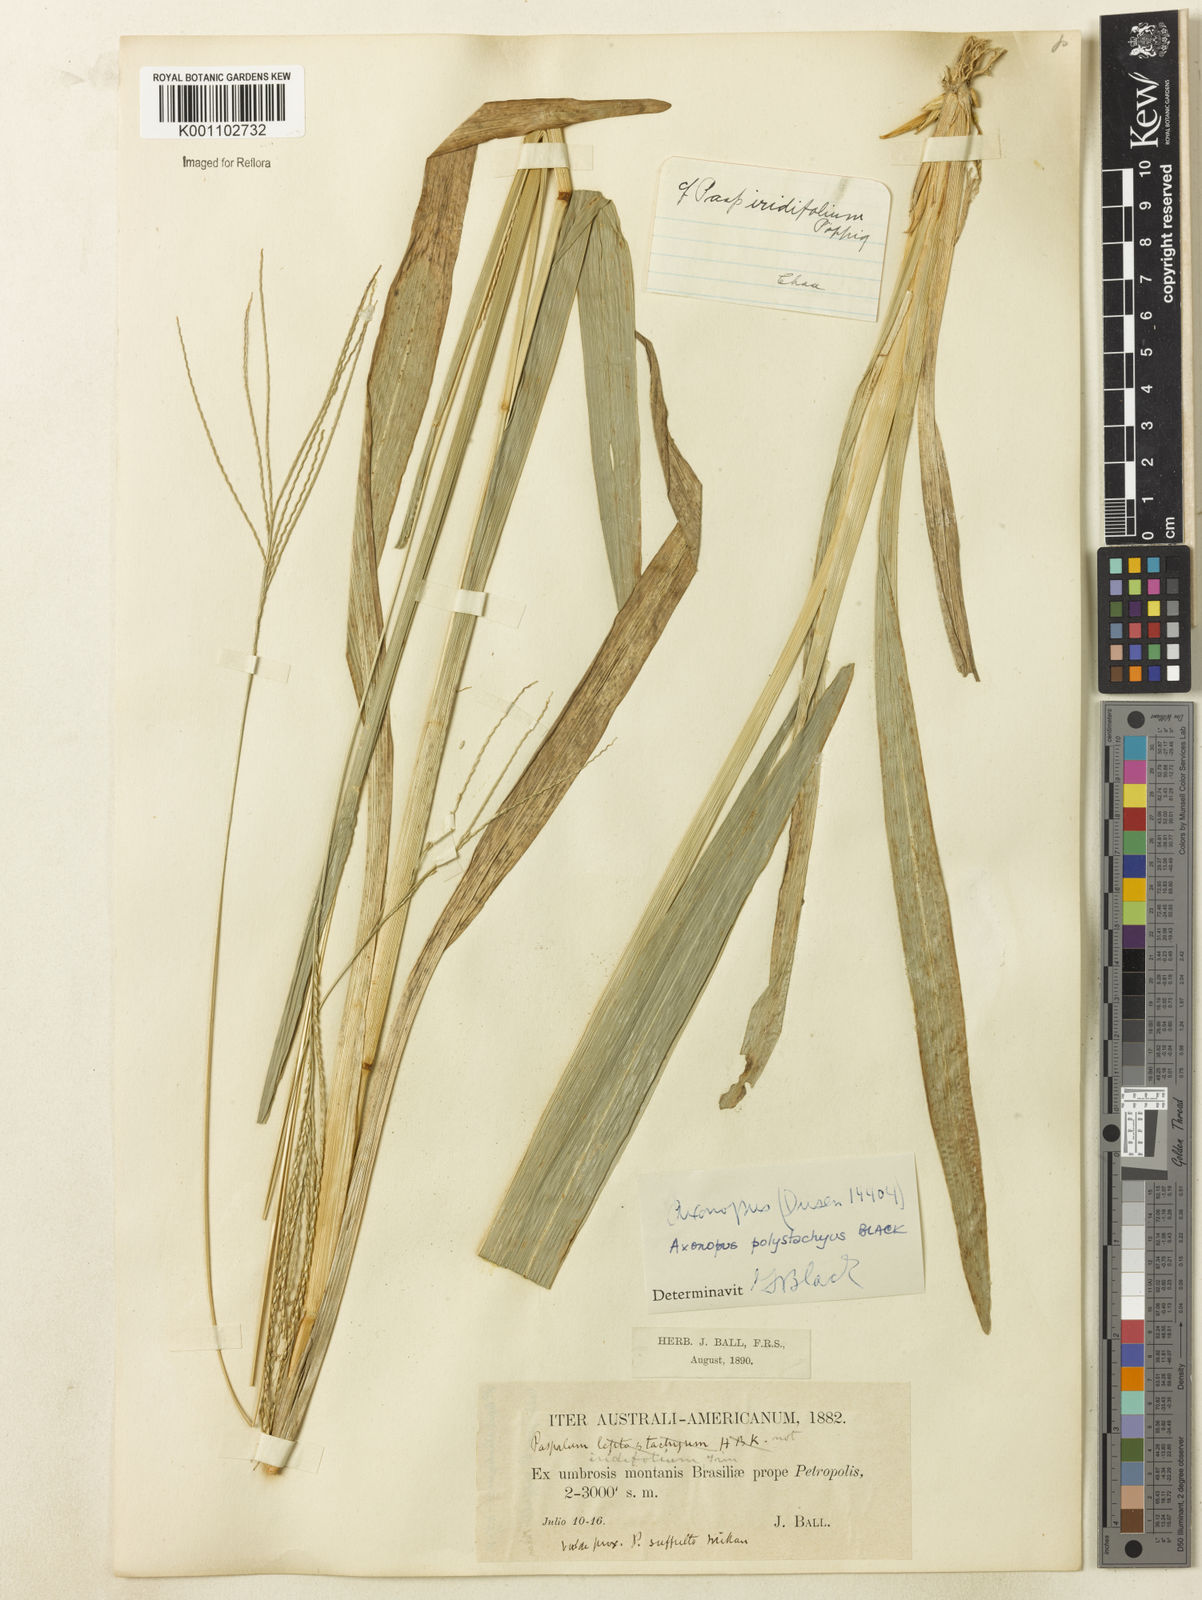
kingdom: Plantae
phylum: Tracheophyta
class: Liliopsida
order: Poales
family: Poaceae
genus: Axonopus
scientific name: Axonopus polystachyus
